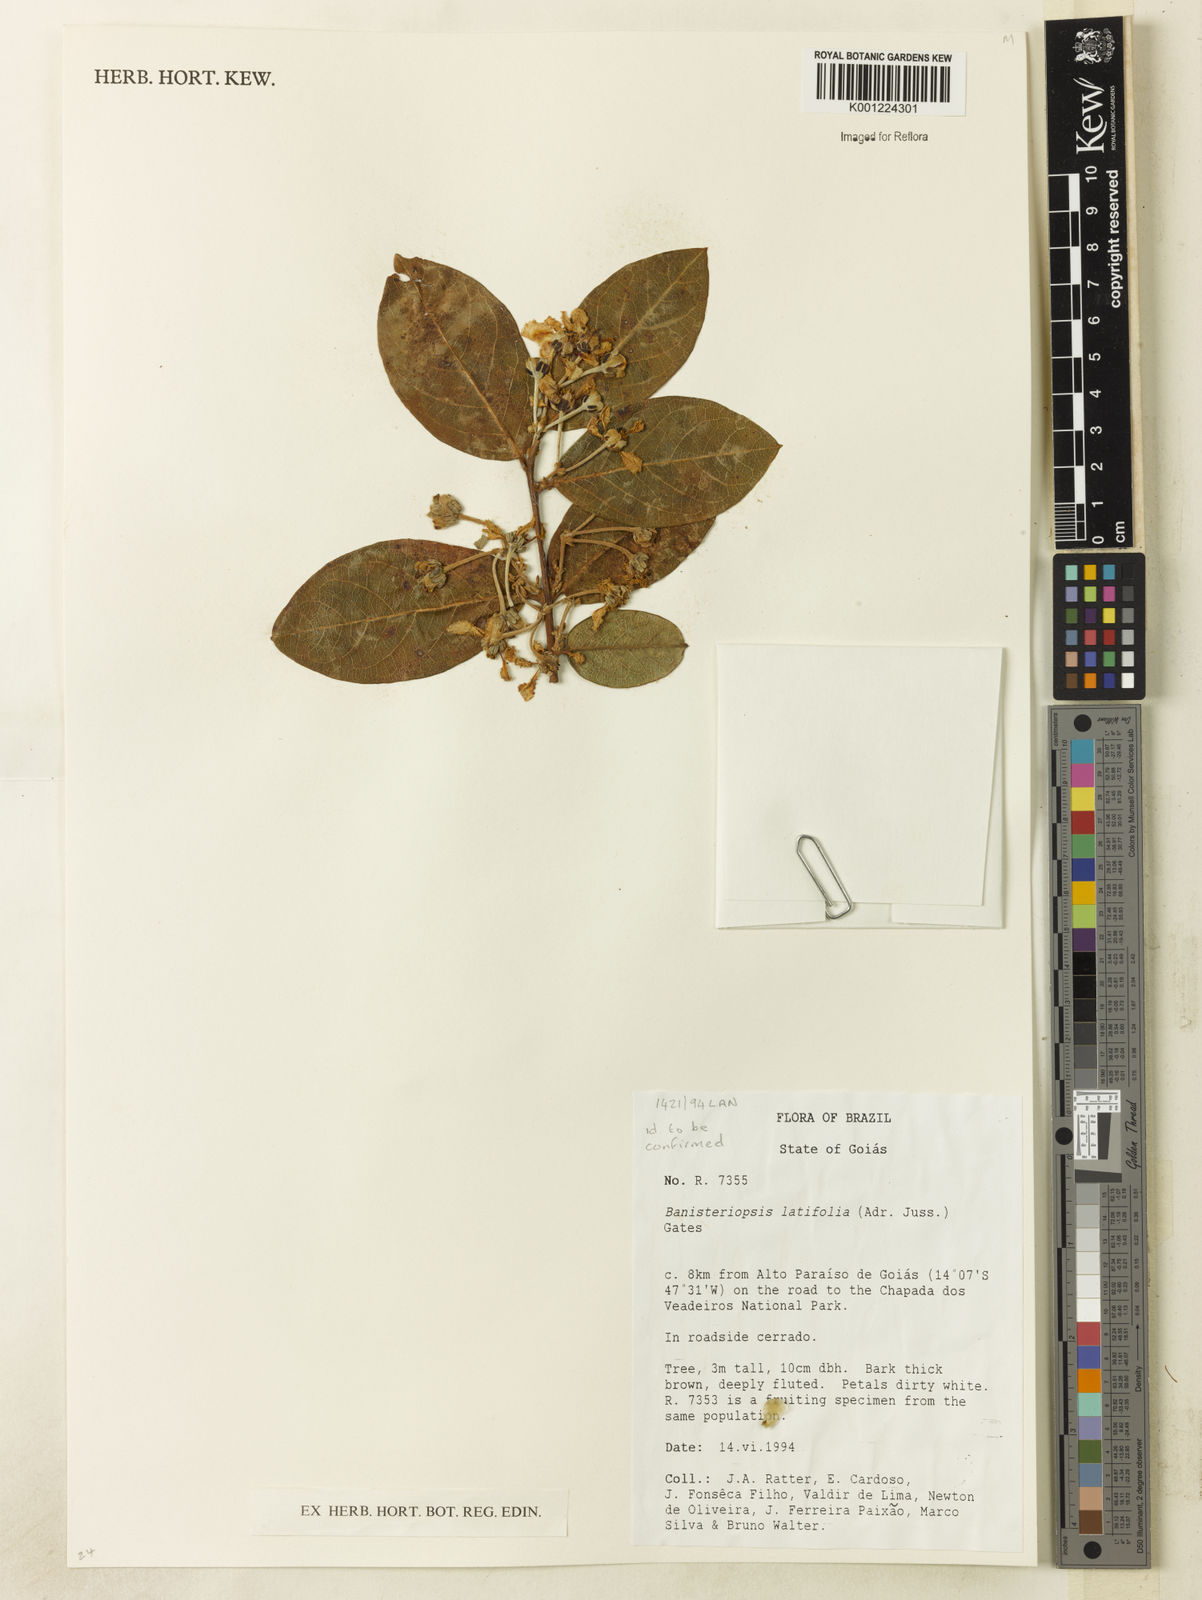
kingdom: Plantae
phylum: Tracheophyta
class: Magnoliopsida
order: Malpighiales
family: Malpighiaceae
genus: Banisteriopsis
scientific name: Banisteriopsis latifolia
